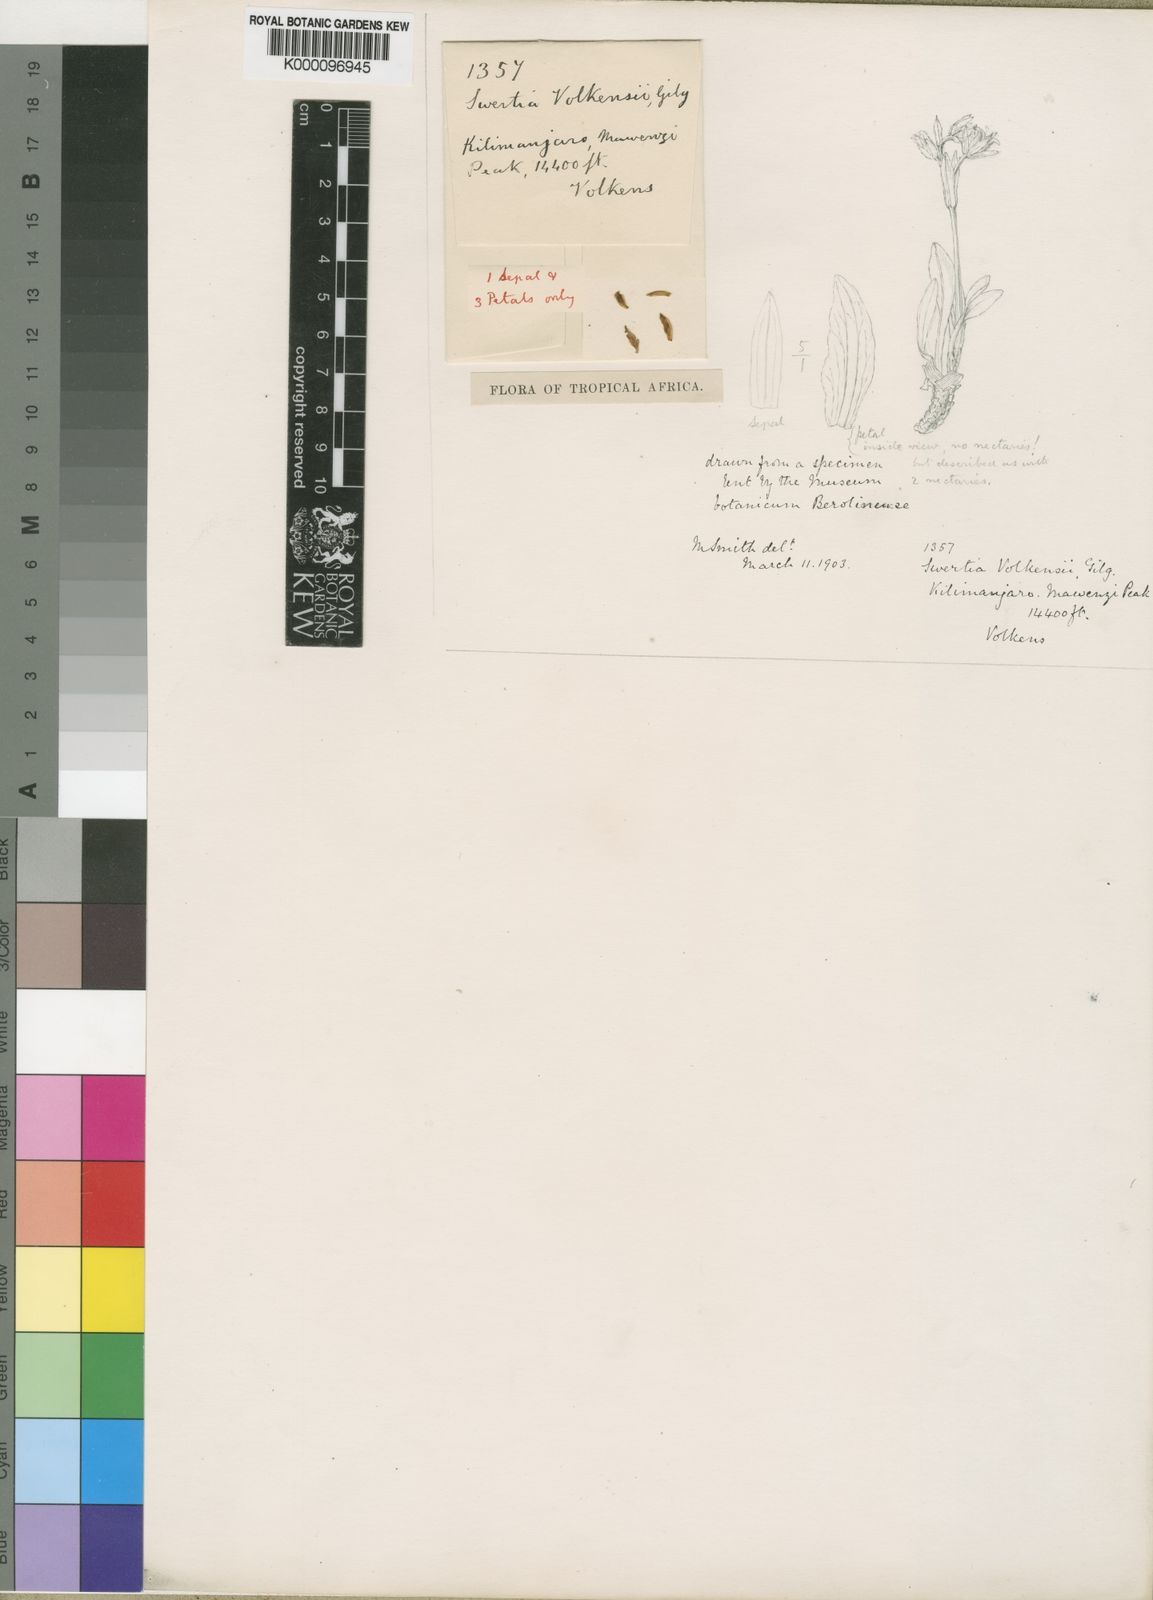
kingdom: Plantae
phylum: Tracheophyta
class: Magnoliopsida
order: Gentianales
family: Gentianaceae
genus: Swertia
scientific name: Swertia volkensii
